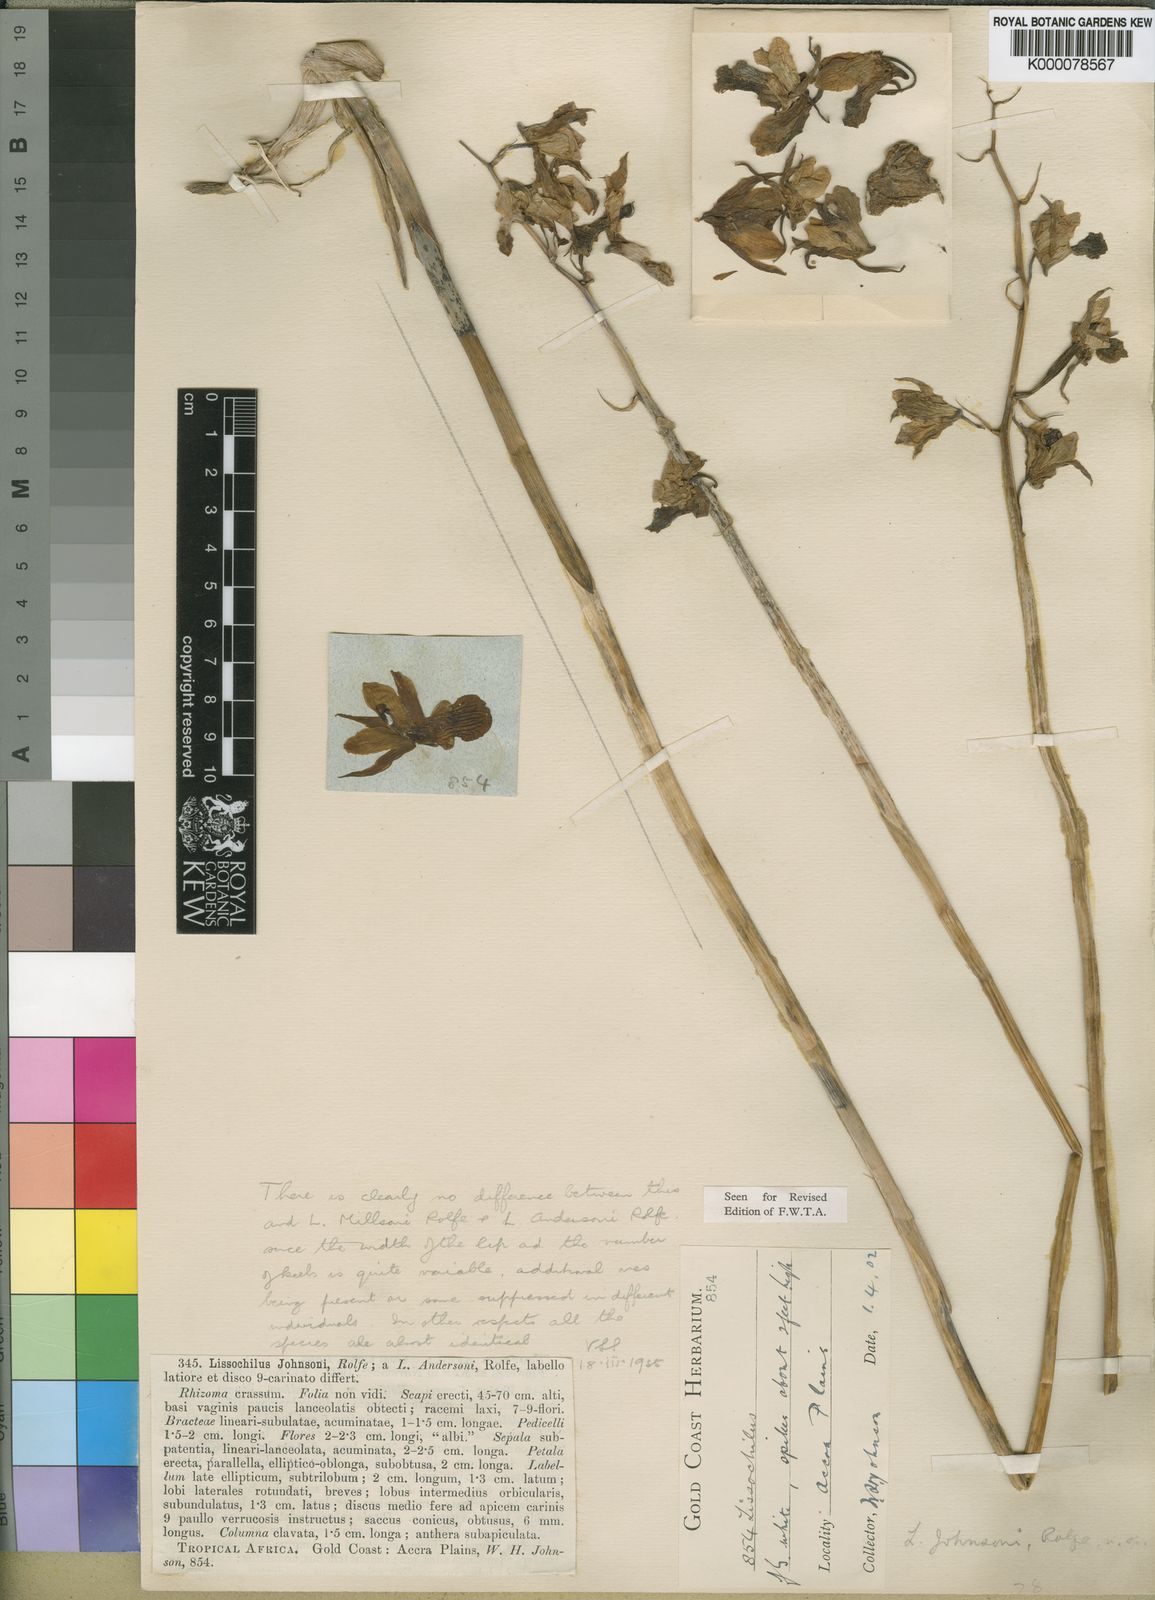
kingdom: Plantae
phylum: Tracheophyta
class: Liliopsida
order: Asparagales
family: Orchidaceae
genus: Eulophia
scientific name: Eulophia flavopurpurea
